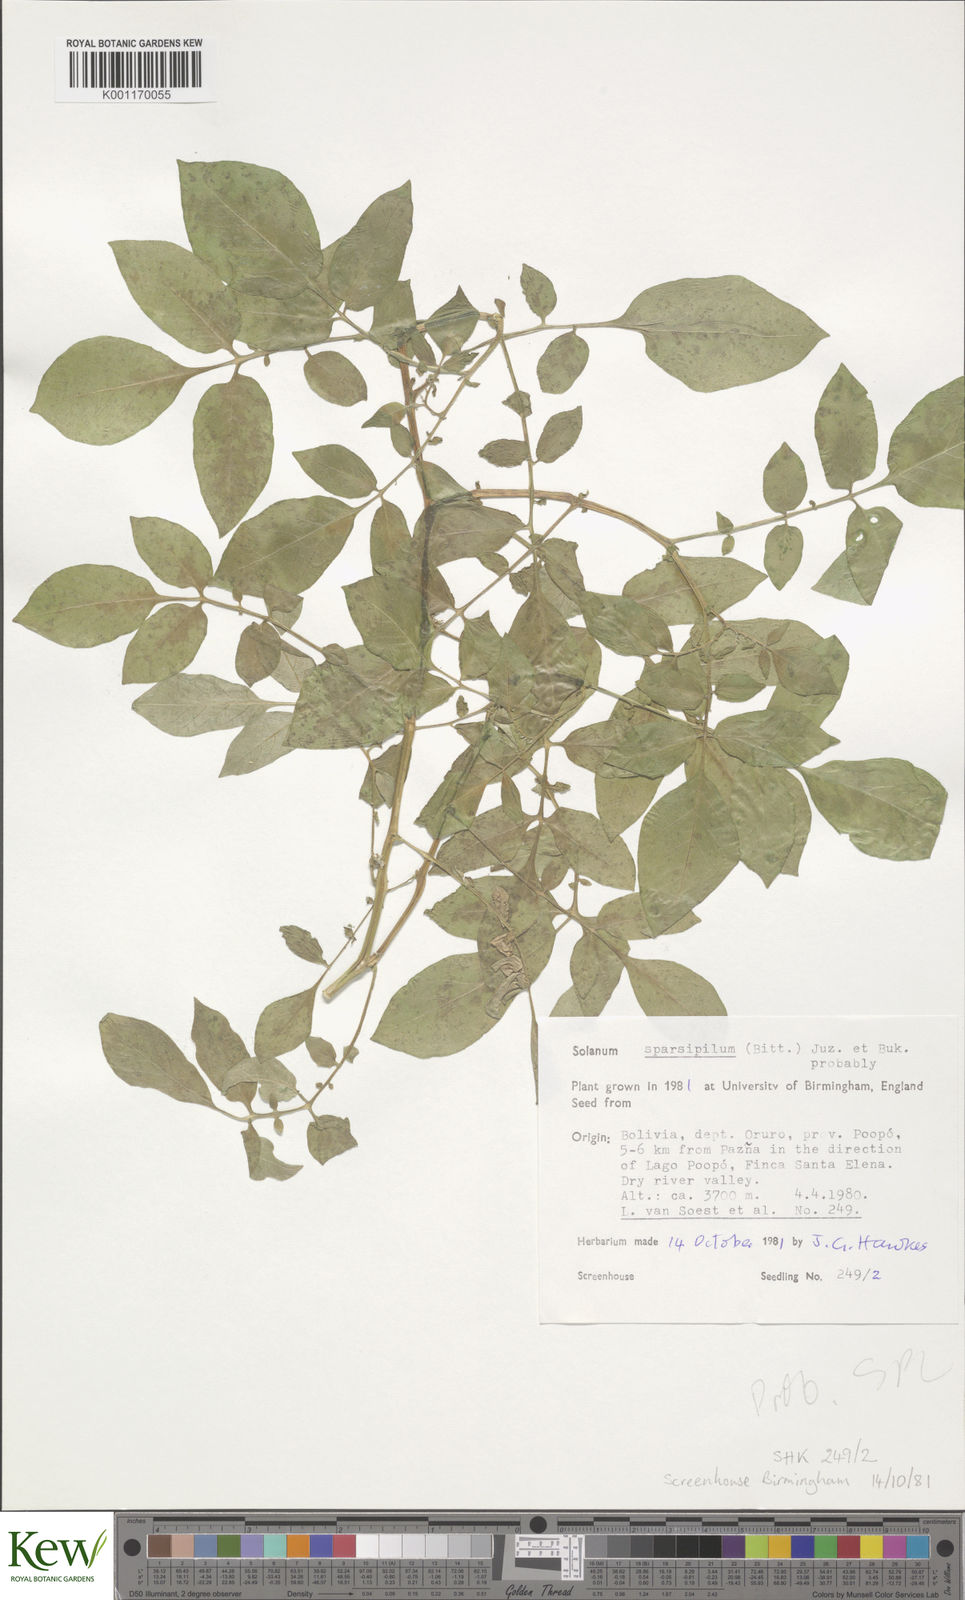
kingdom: Plantae
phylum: Tracheophyta
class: Magnoliopsida
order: Solanales
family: Solanaceae
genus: Solanum
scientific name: Solanum brevicaule
